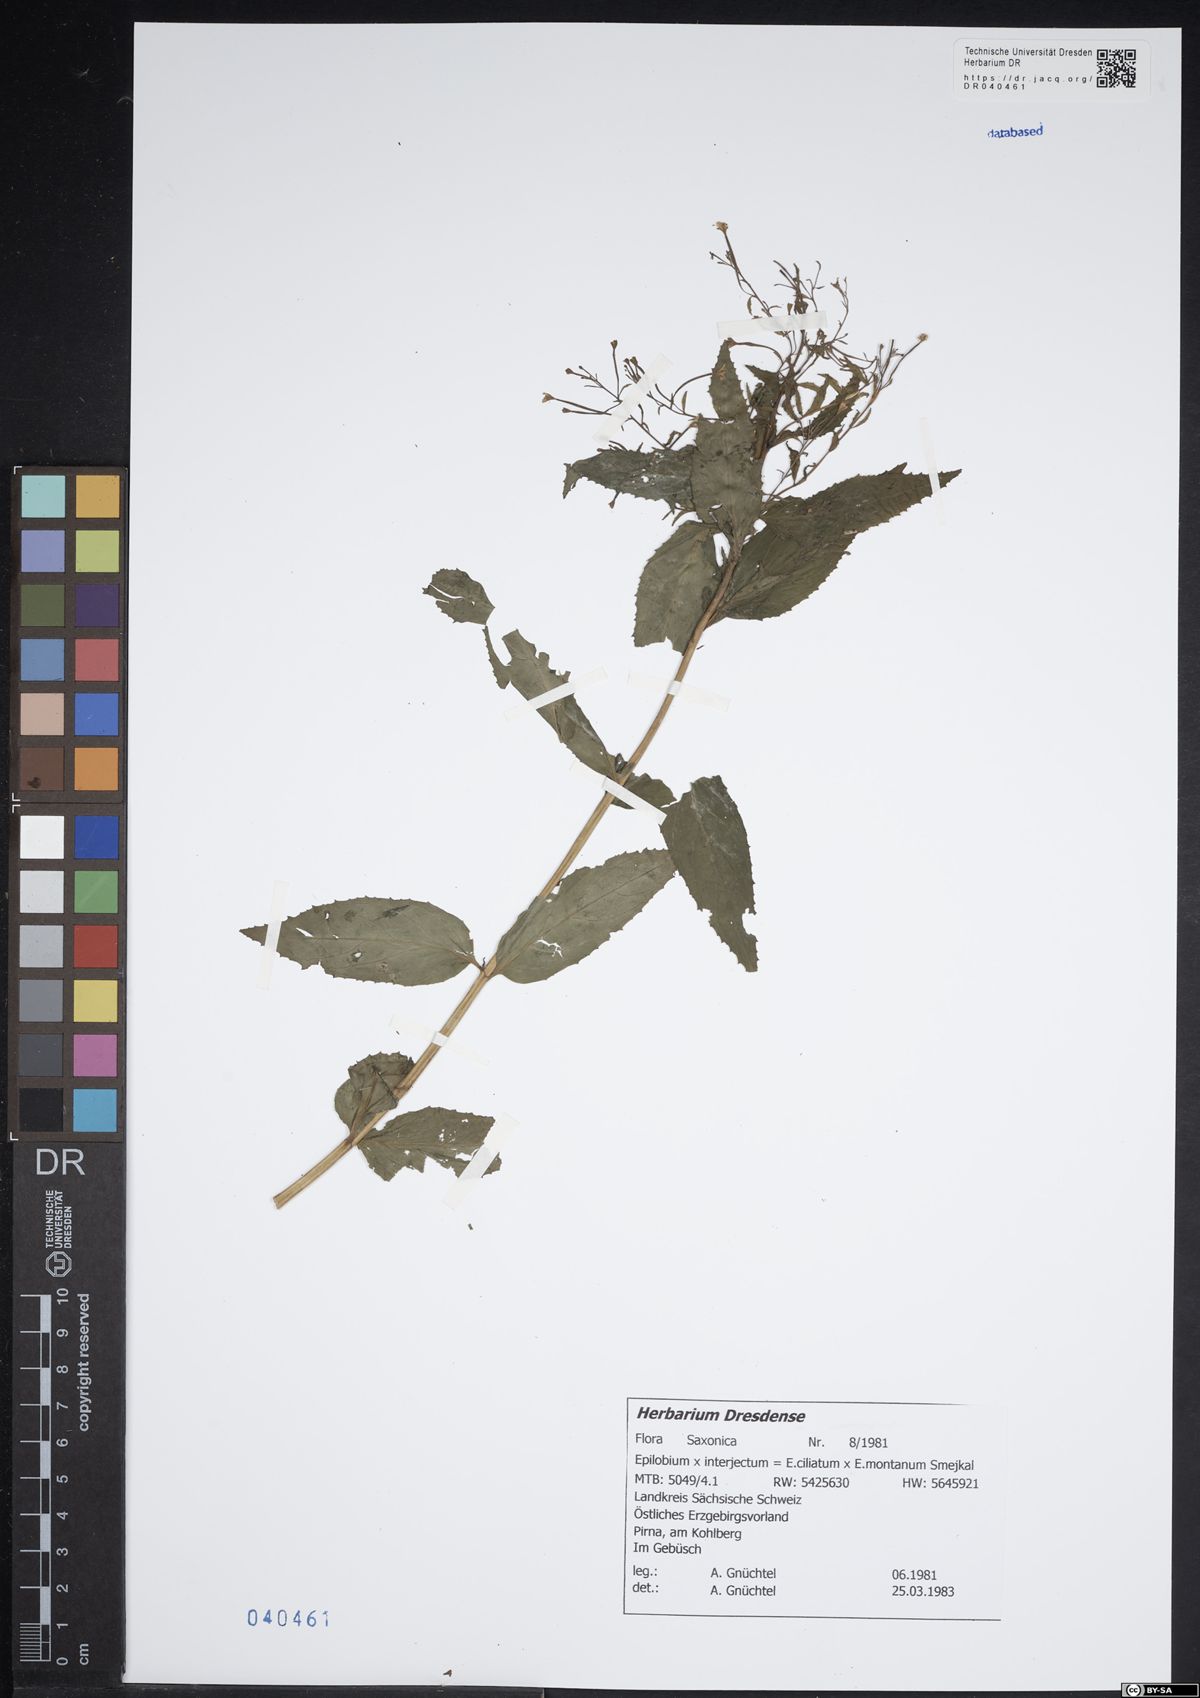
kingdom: Plantae
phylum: Tracheophyta
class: Magnoliopsida
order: Myrtales
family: Onagraceae
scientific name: Onagraceae
